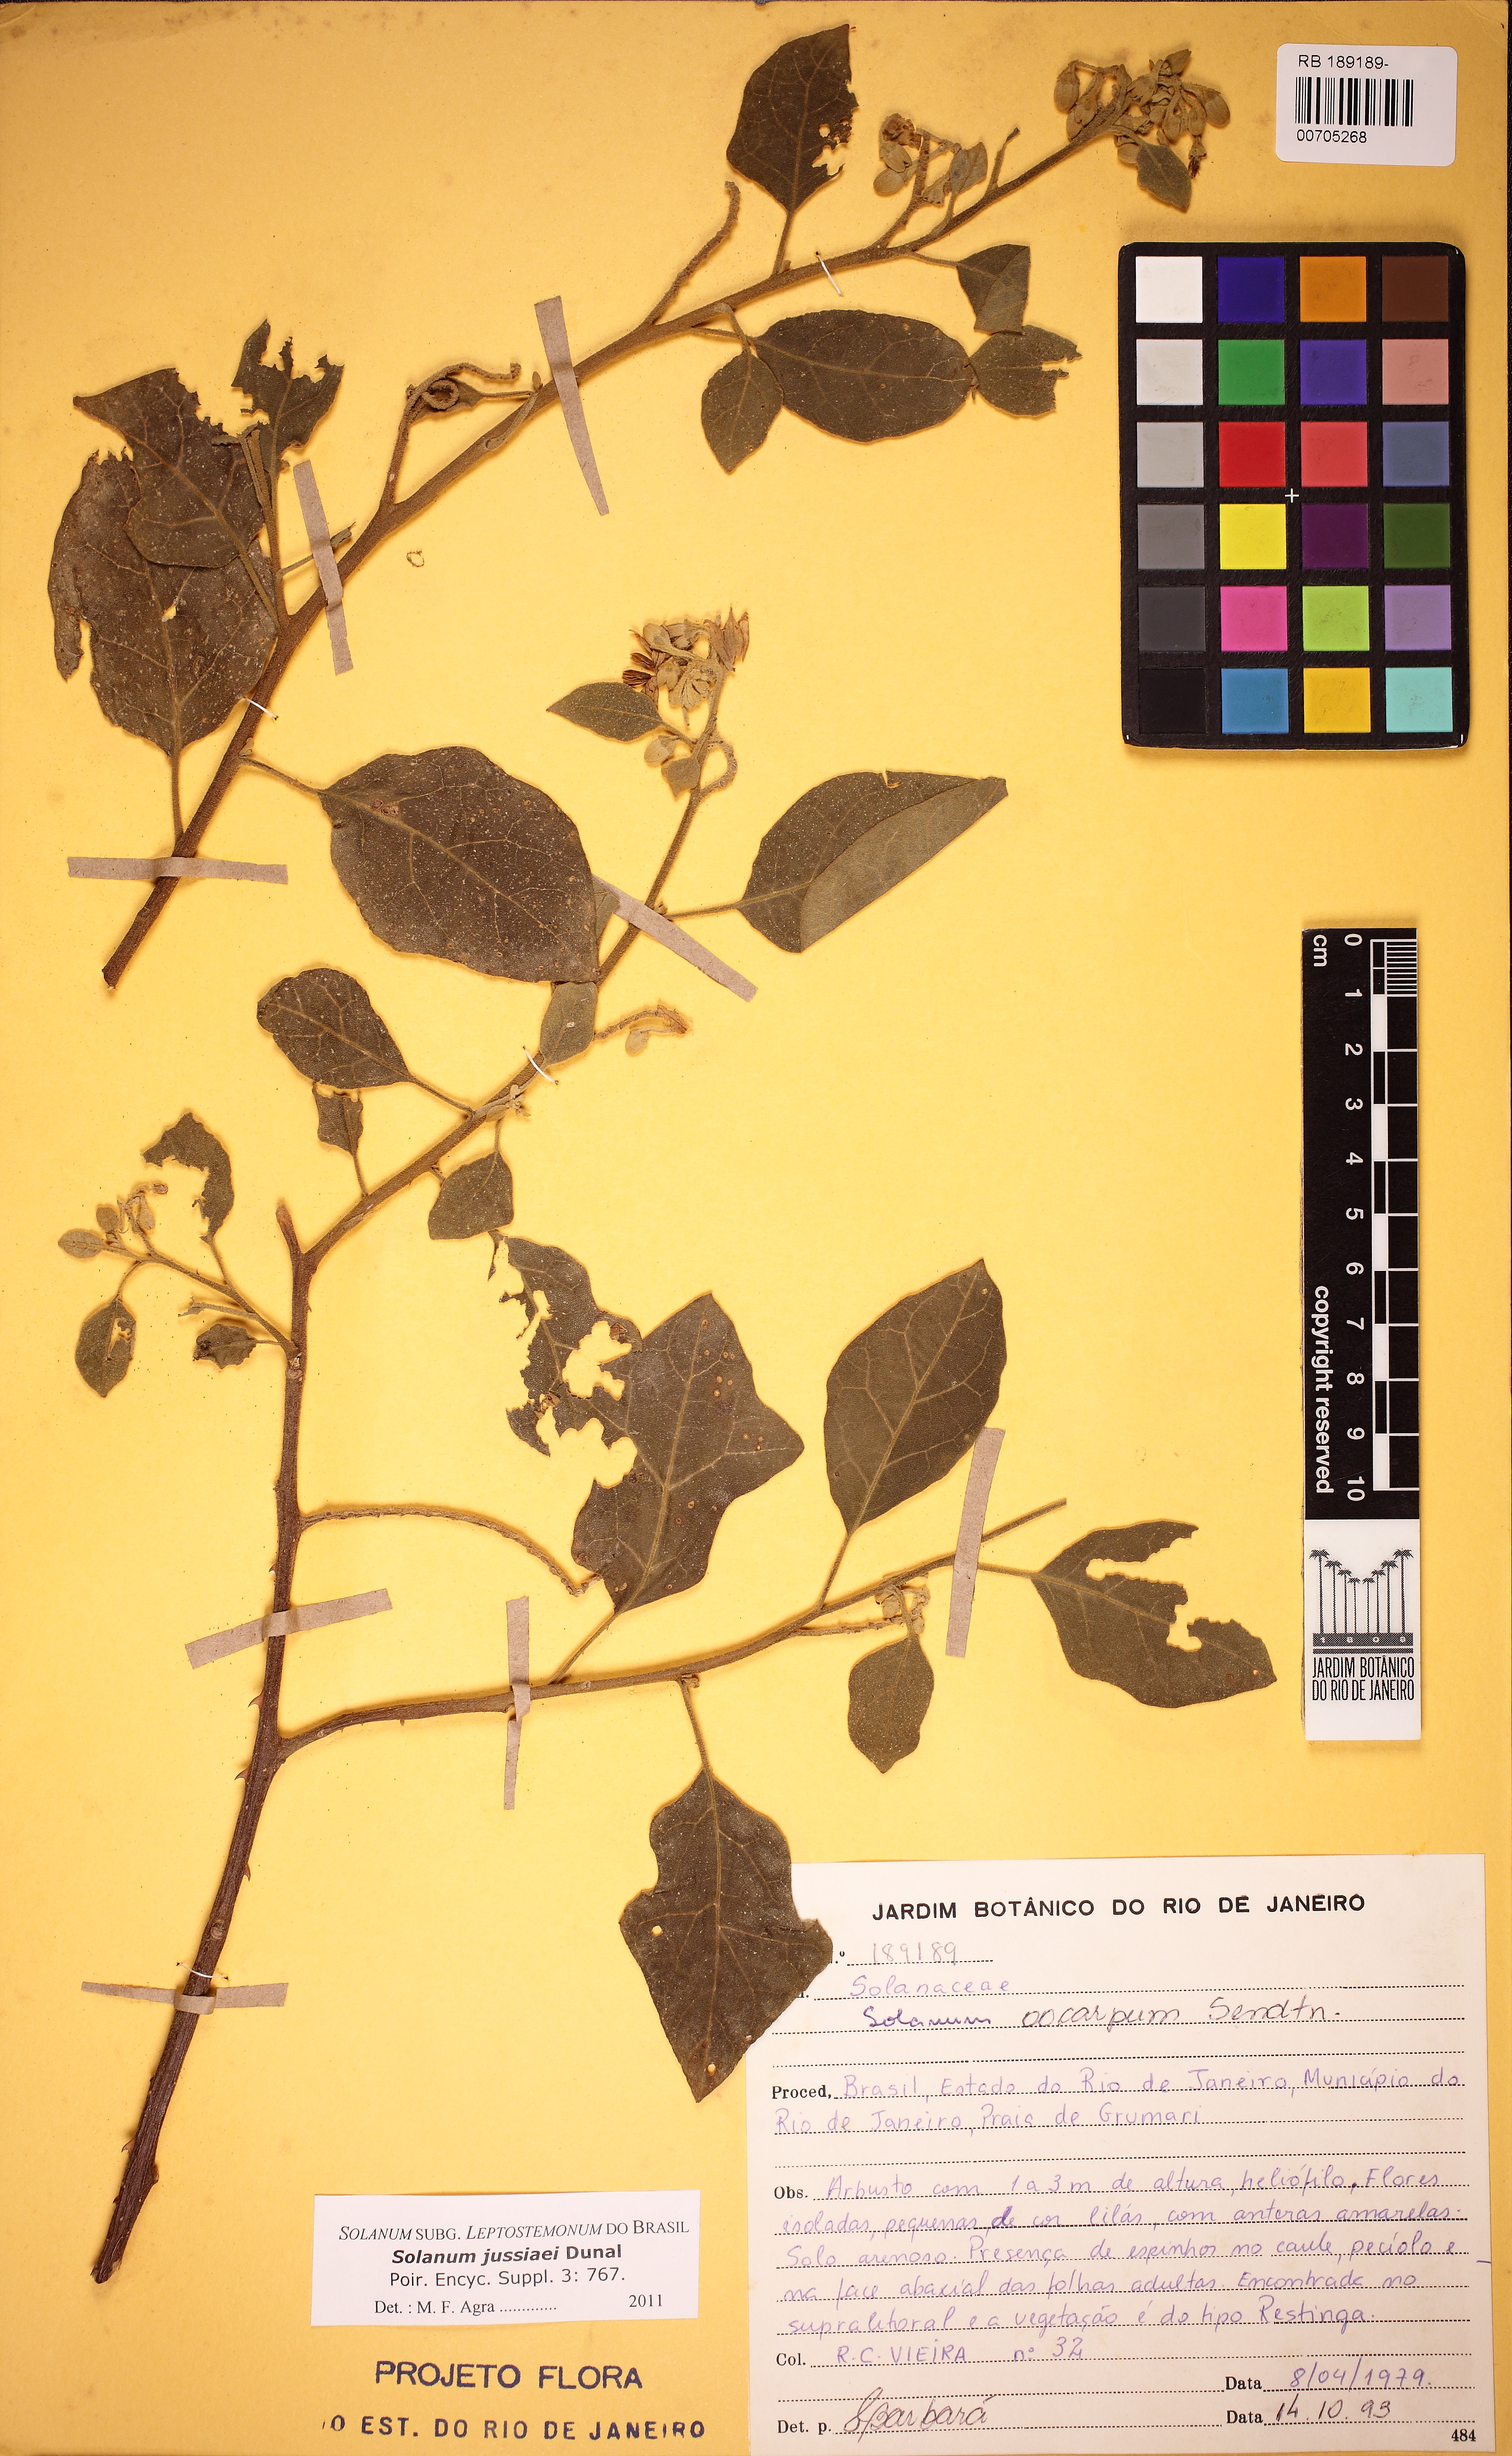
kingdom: Plantae
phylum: Tracheophyta
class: Magnoliopsida
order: Solanales
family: Solanaceae
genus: Solanum
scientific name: Solanum jussiaei
